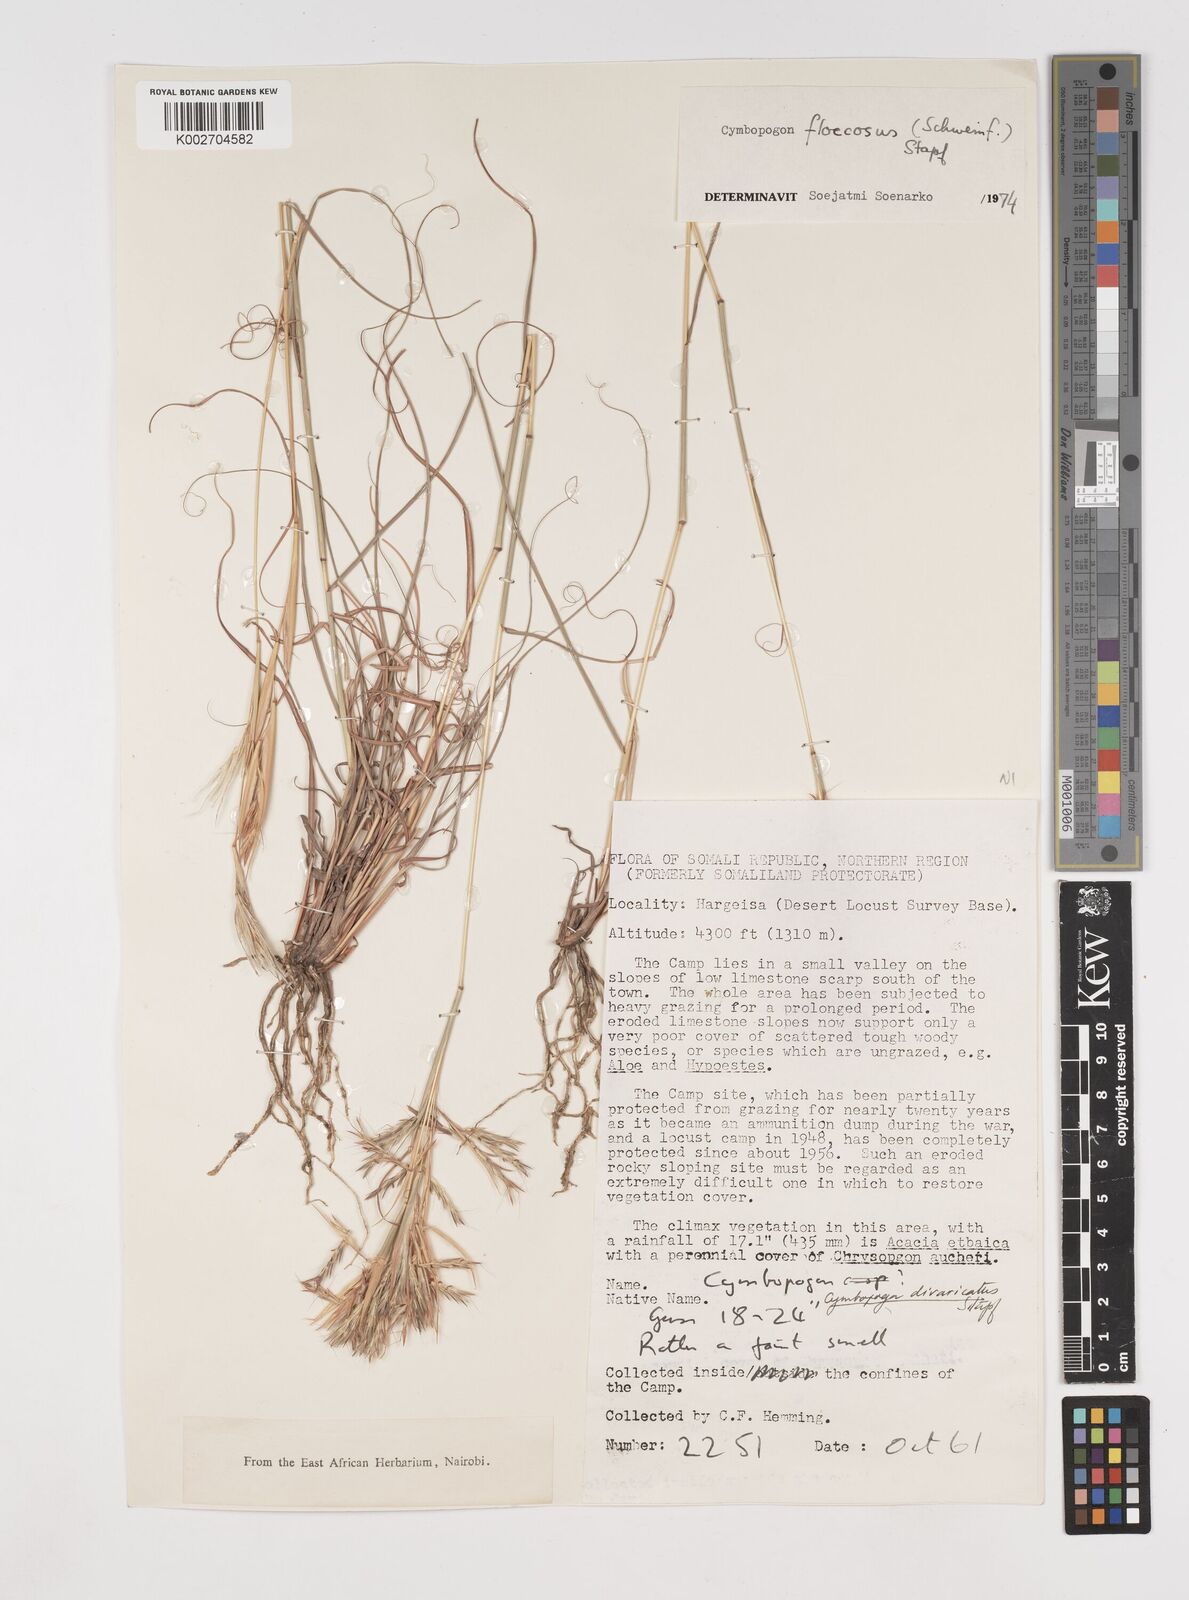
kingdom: Plantae
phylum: Tracheophyta
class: Liliopsida
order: Poales
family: Poaceae
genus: Cymbopogon
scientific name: Cymbopogon commutatus
